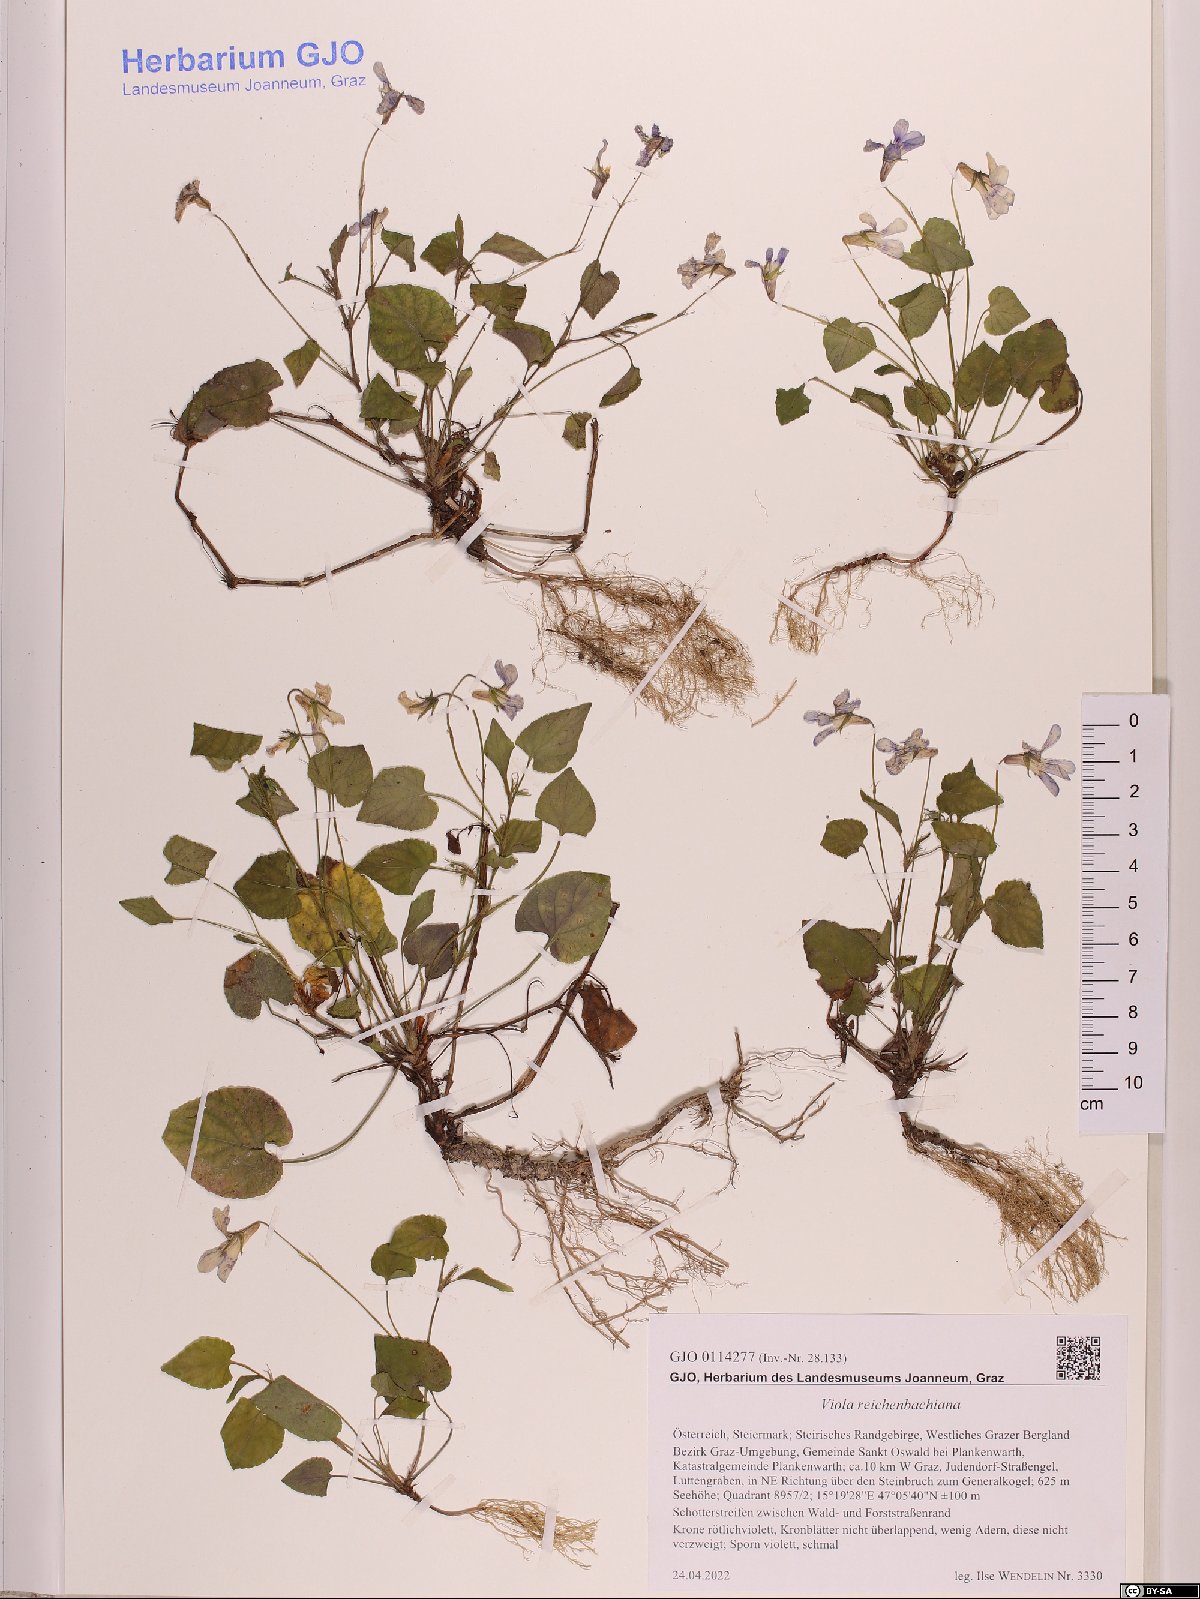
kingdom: Plantae
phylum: Tracheophyta
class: Magnoliopsida
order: Malpighiales
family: Violaceae
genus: Viola
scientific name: Viola reichenbachiana
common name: Early dog-violet
